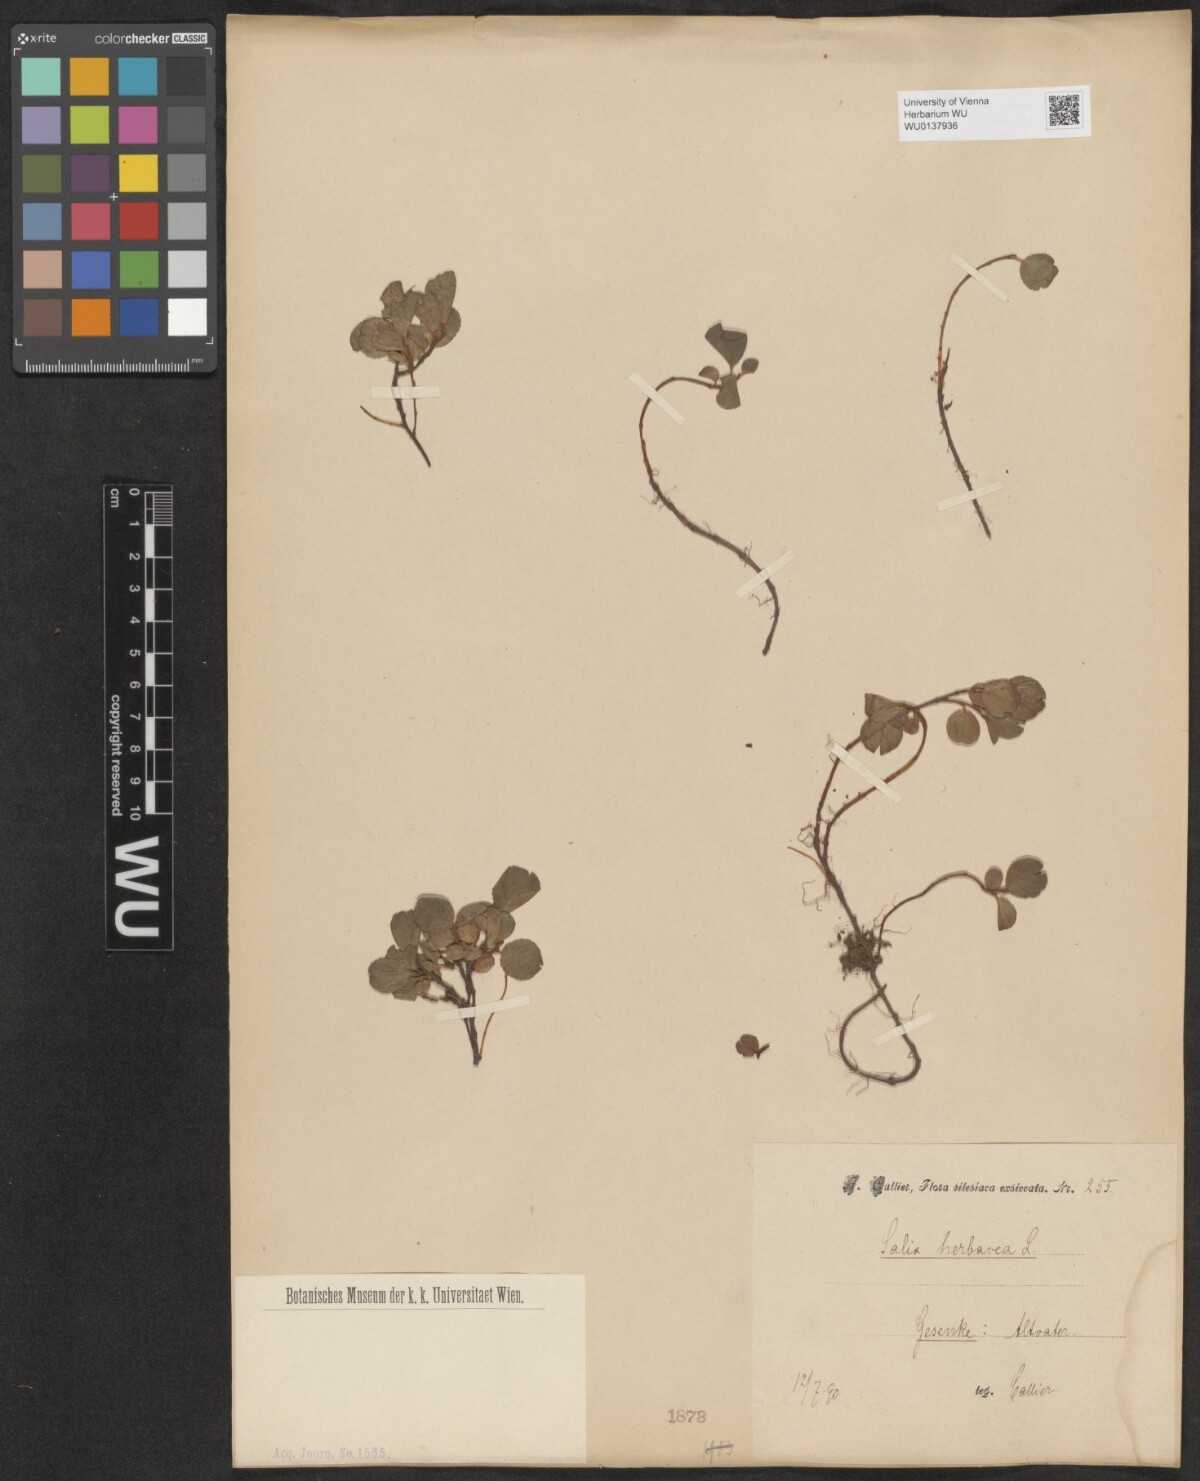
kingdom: Plantae
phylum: Tracheophyta
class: Magnoliopsida
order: Malpighiales
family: Salicaceae
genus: Salix
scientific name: Salix herbacea
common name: Dwarf willow
